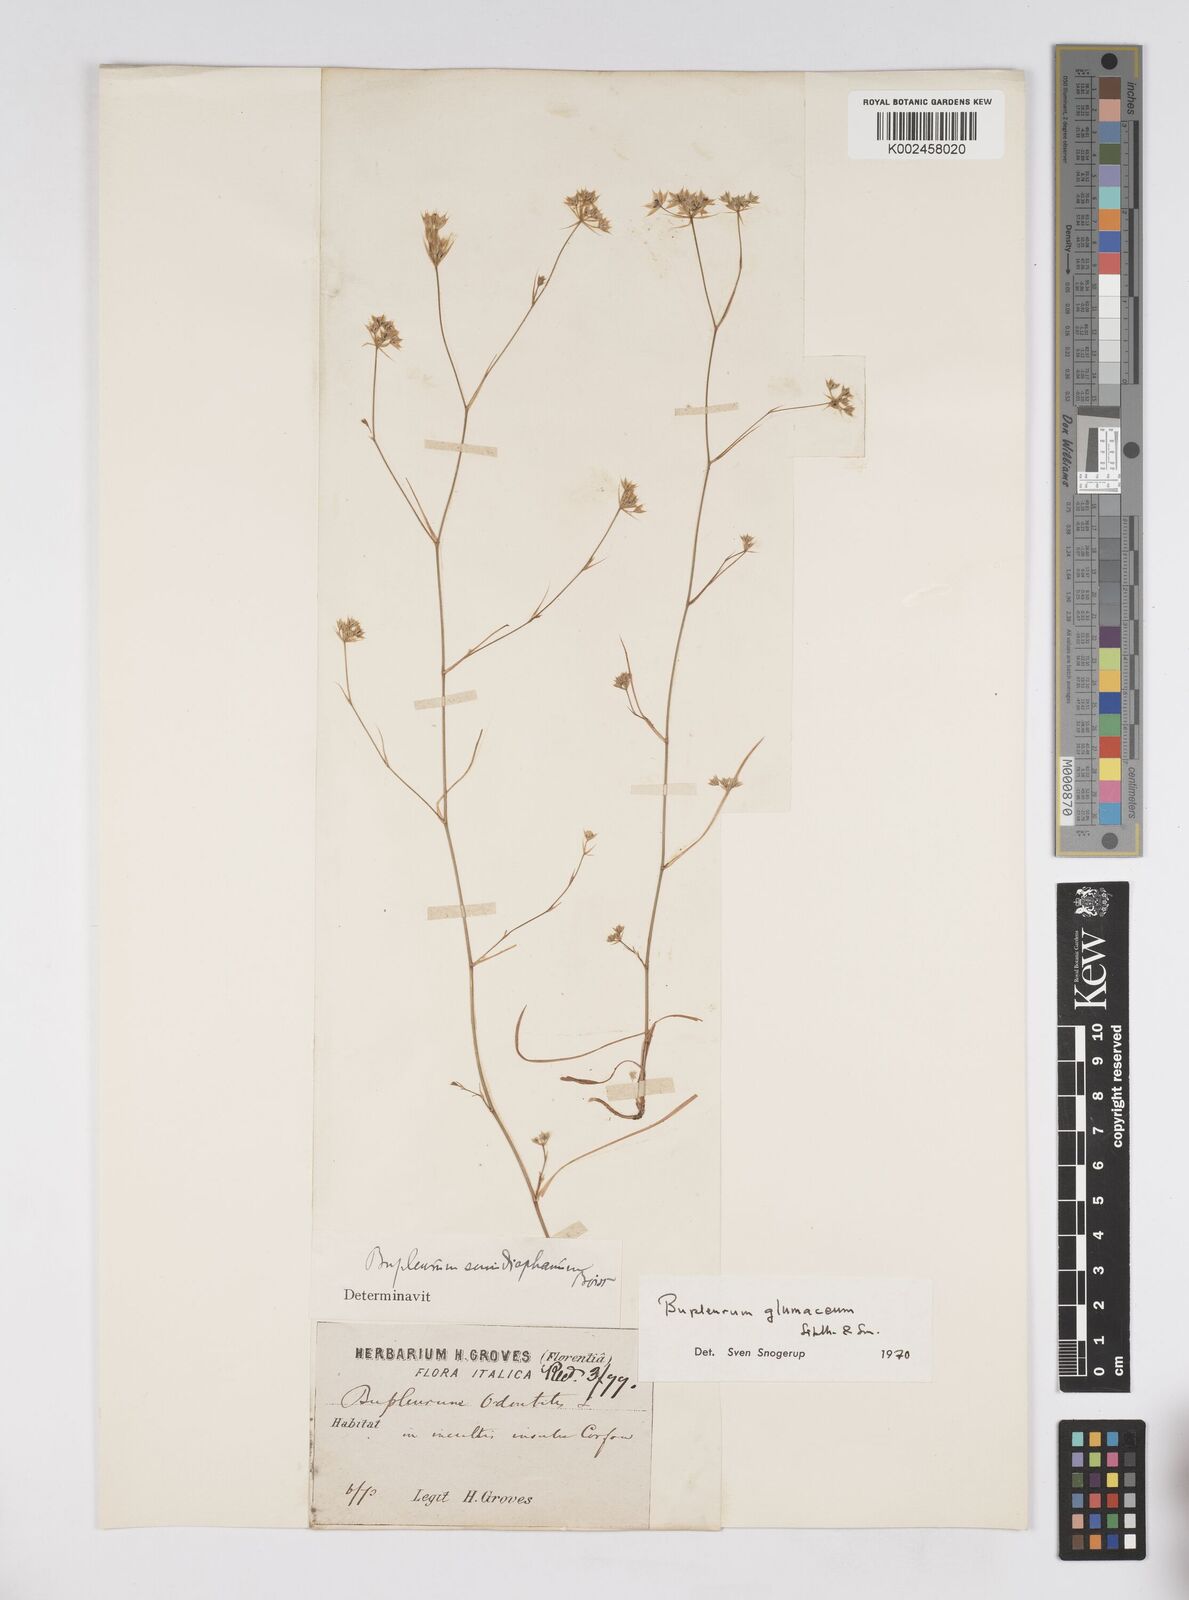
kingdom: Plantae
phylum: Tracheophyta
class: Magnoliopsida
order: Apiales
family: Apiaceae
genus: Bupleurum
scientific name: Bupleurum glumaceum
